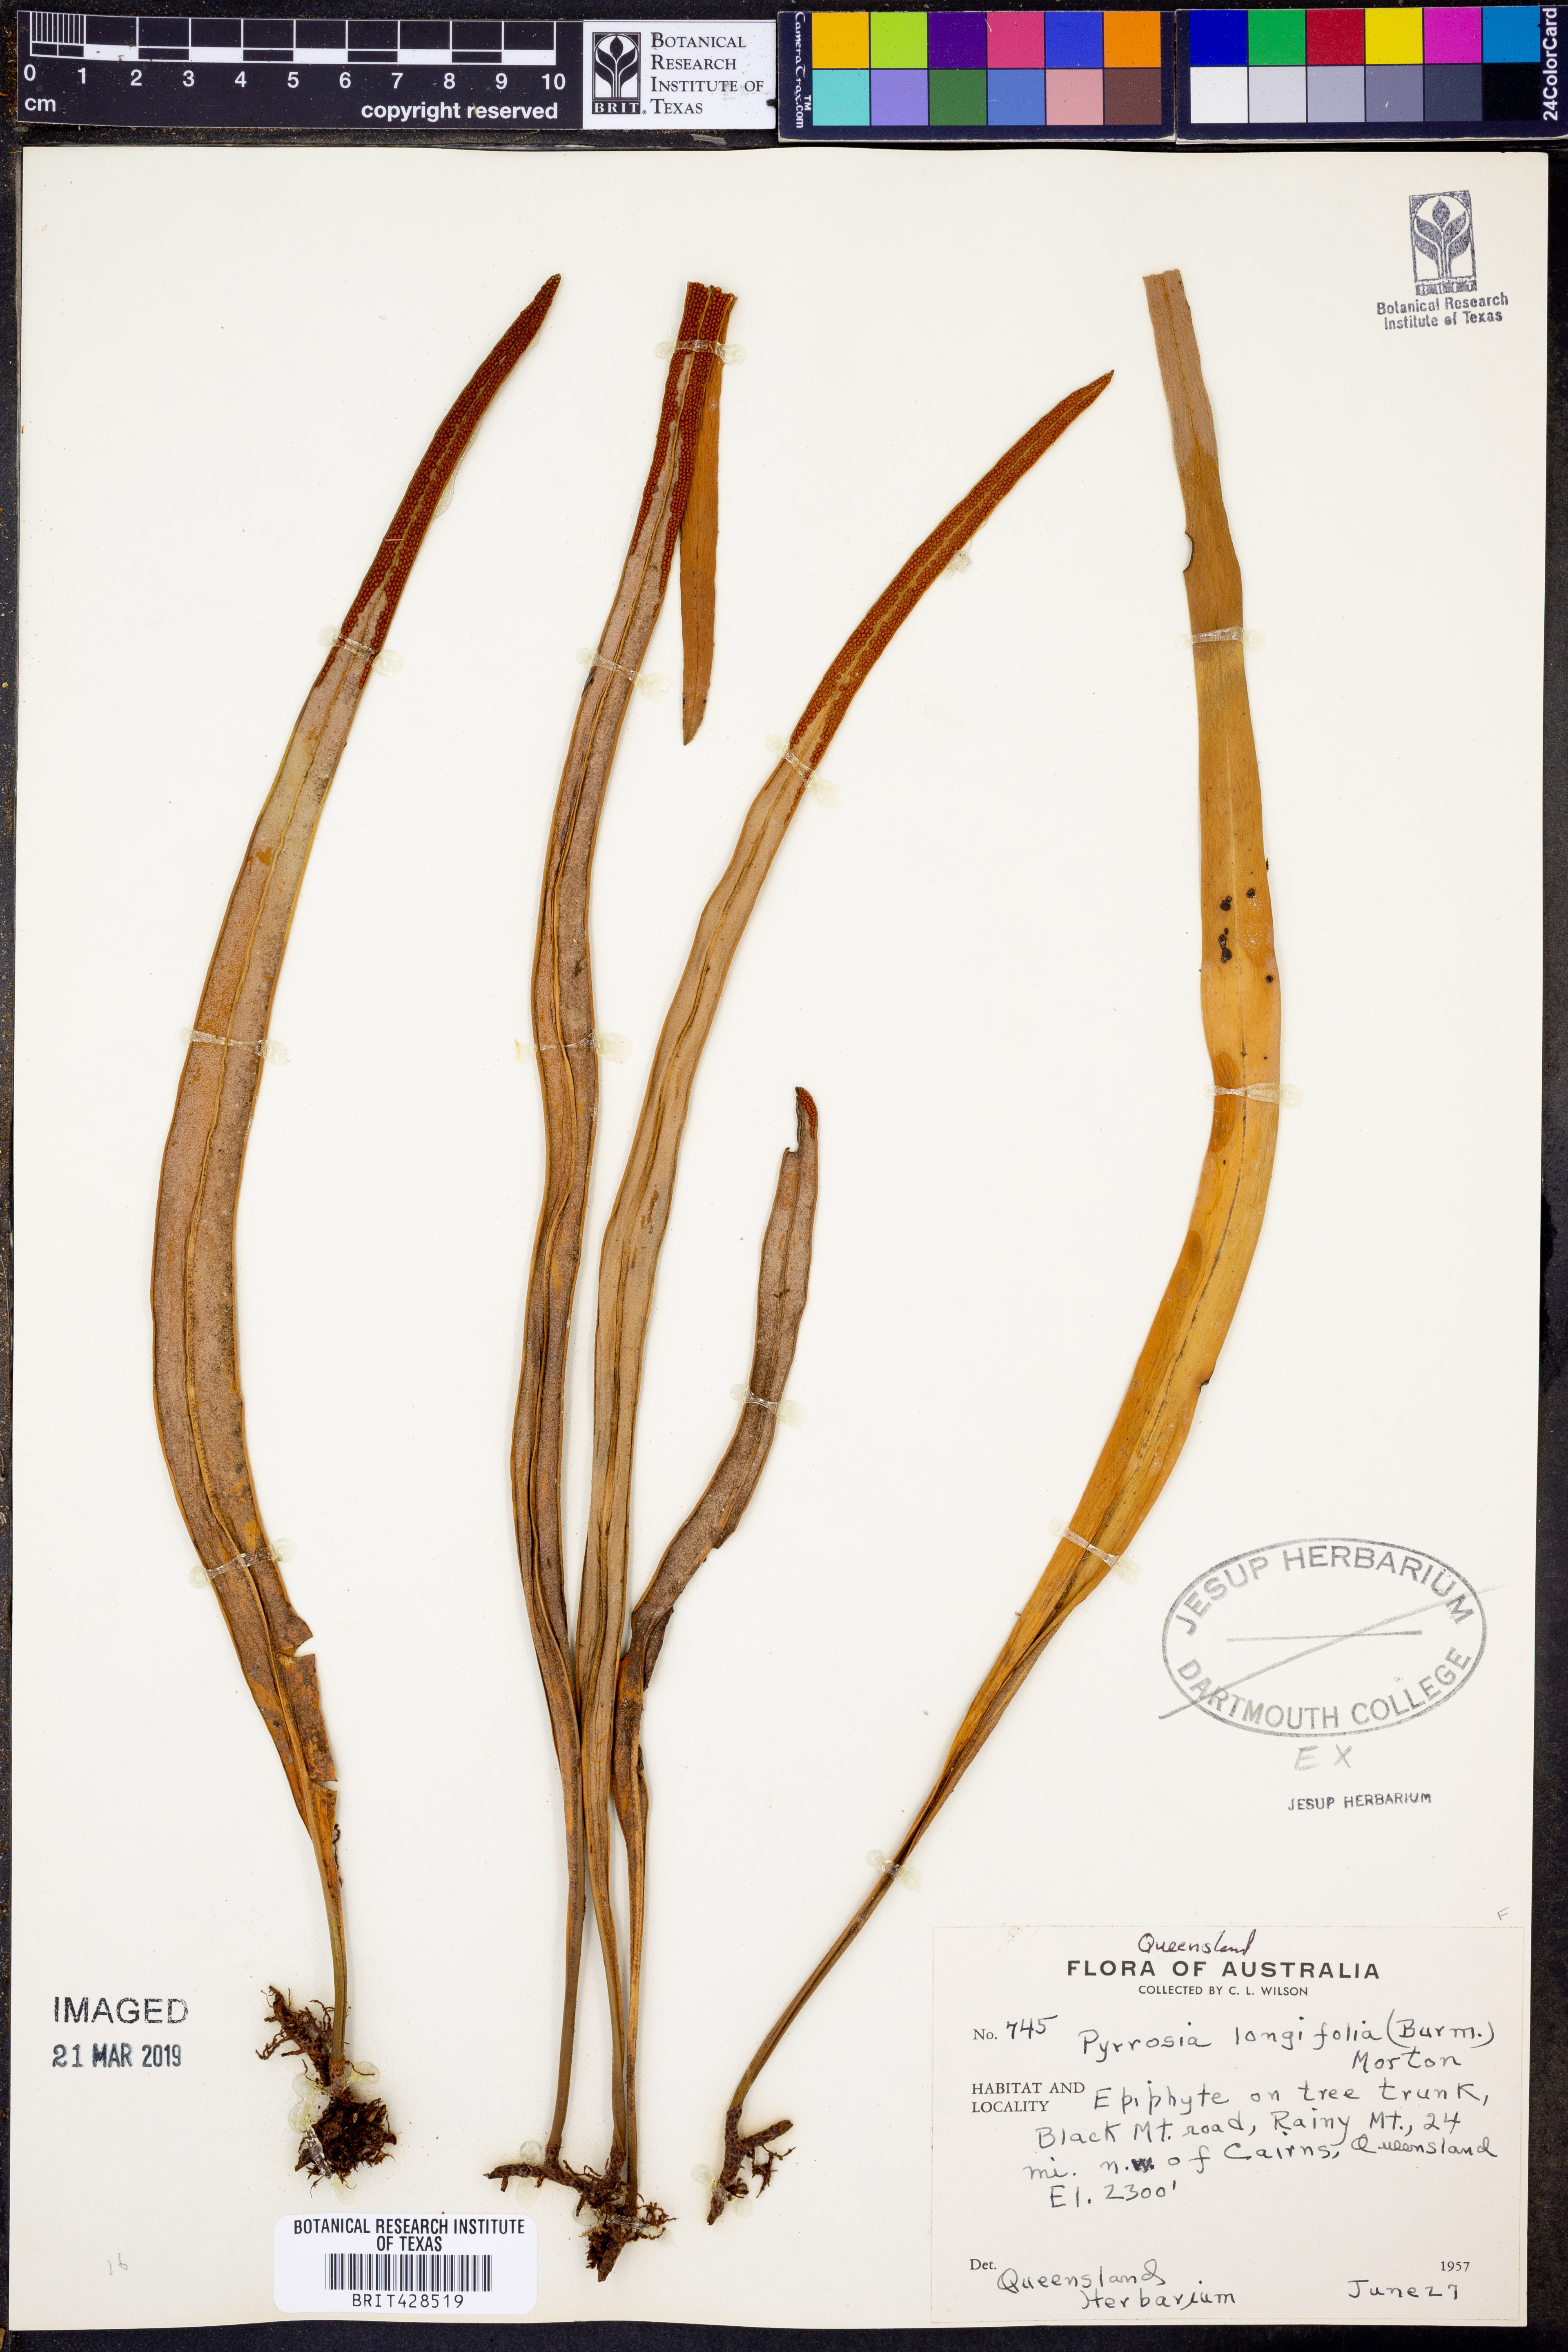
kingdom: Plantae
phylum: Tracheophyta
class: Polypodiopsida
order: Polypodiales
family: Polypodiaceae
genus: Pyrrosia
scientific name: Pyrrosia longifolia
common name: Long-leaved felt fern
